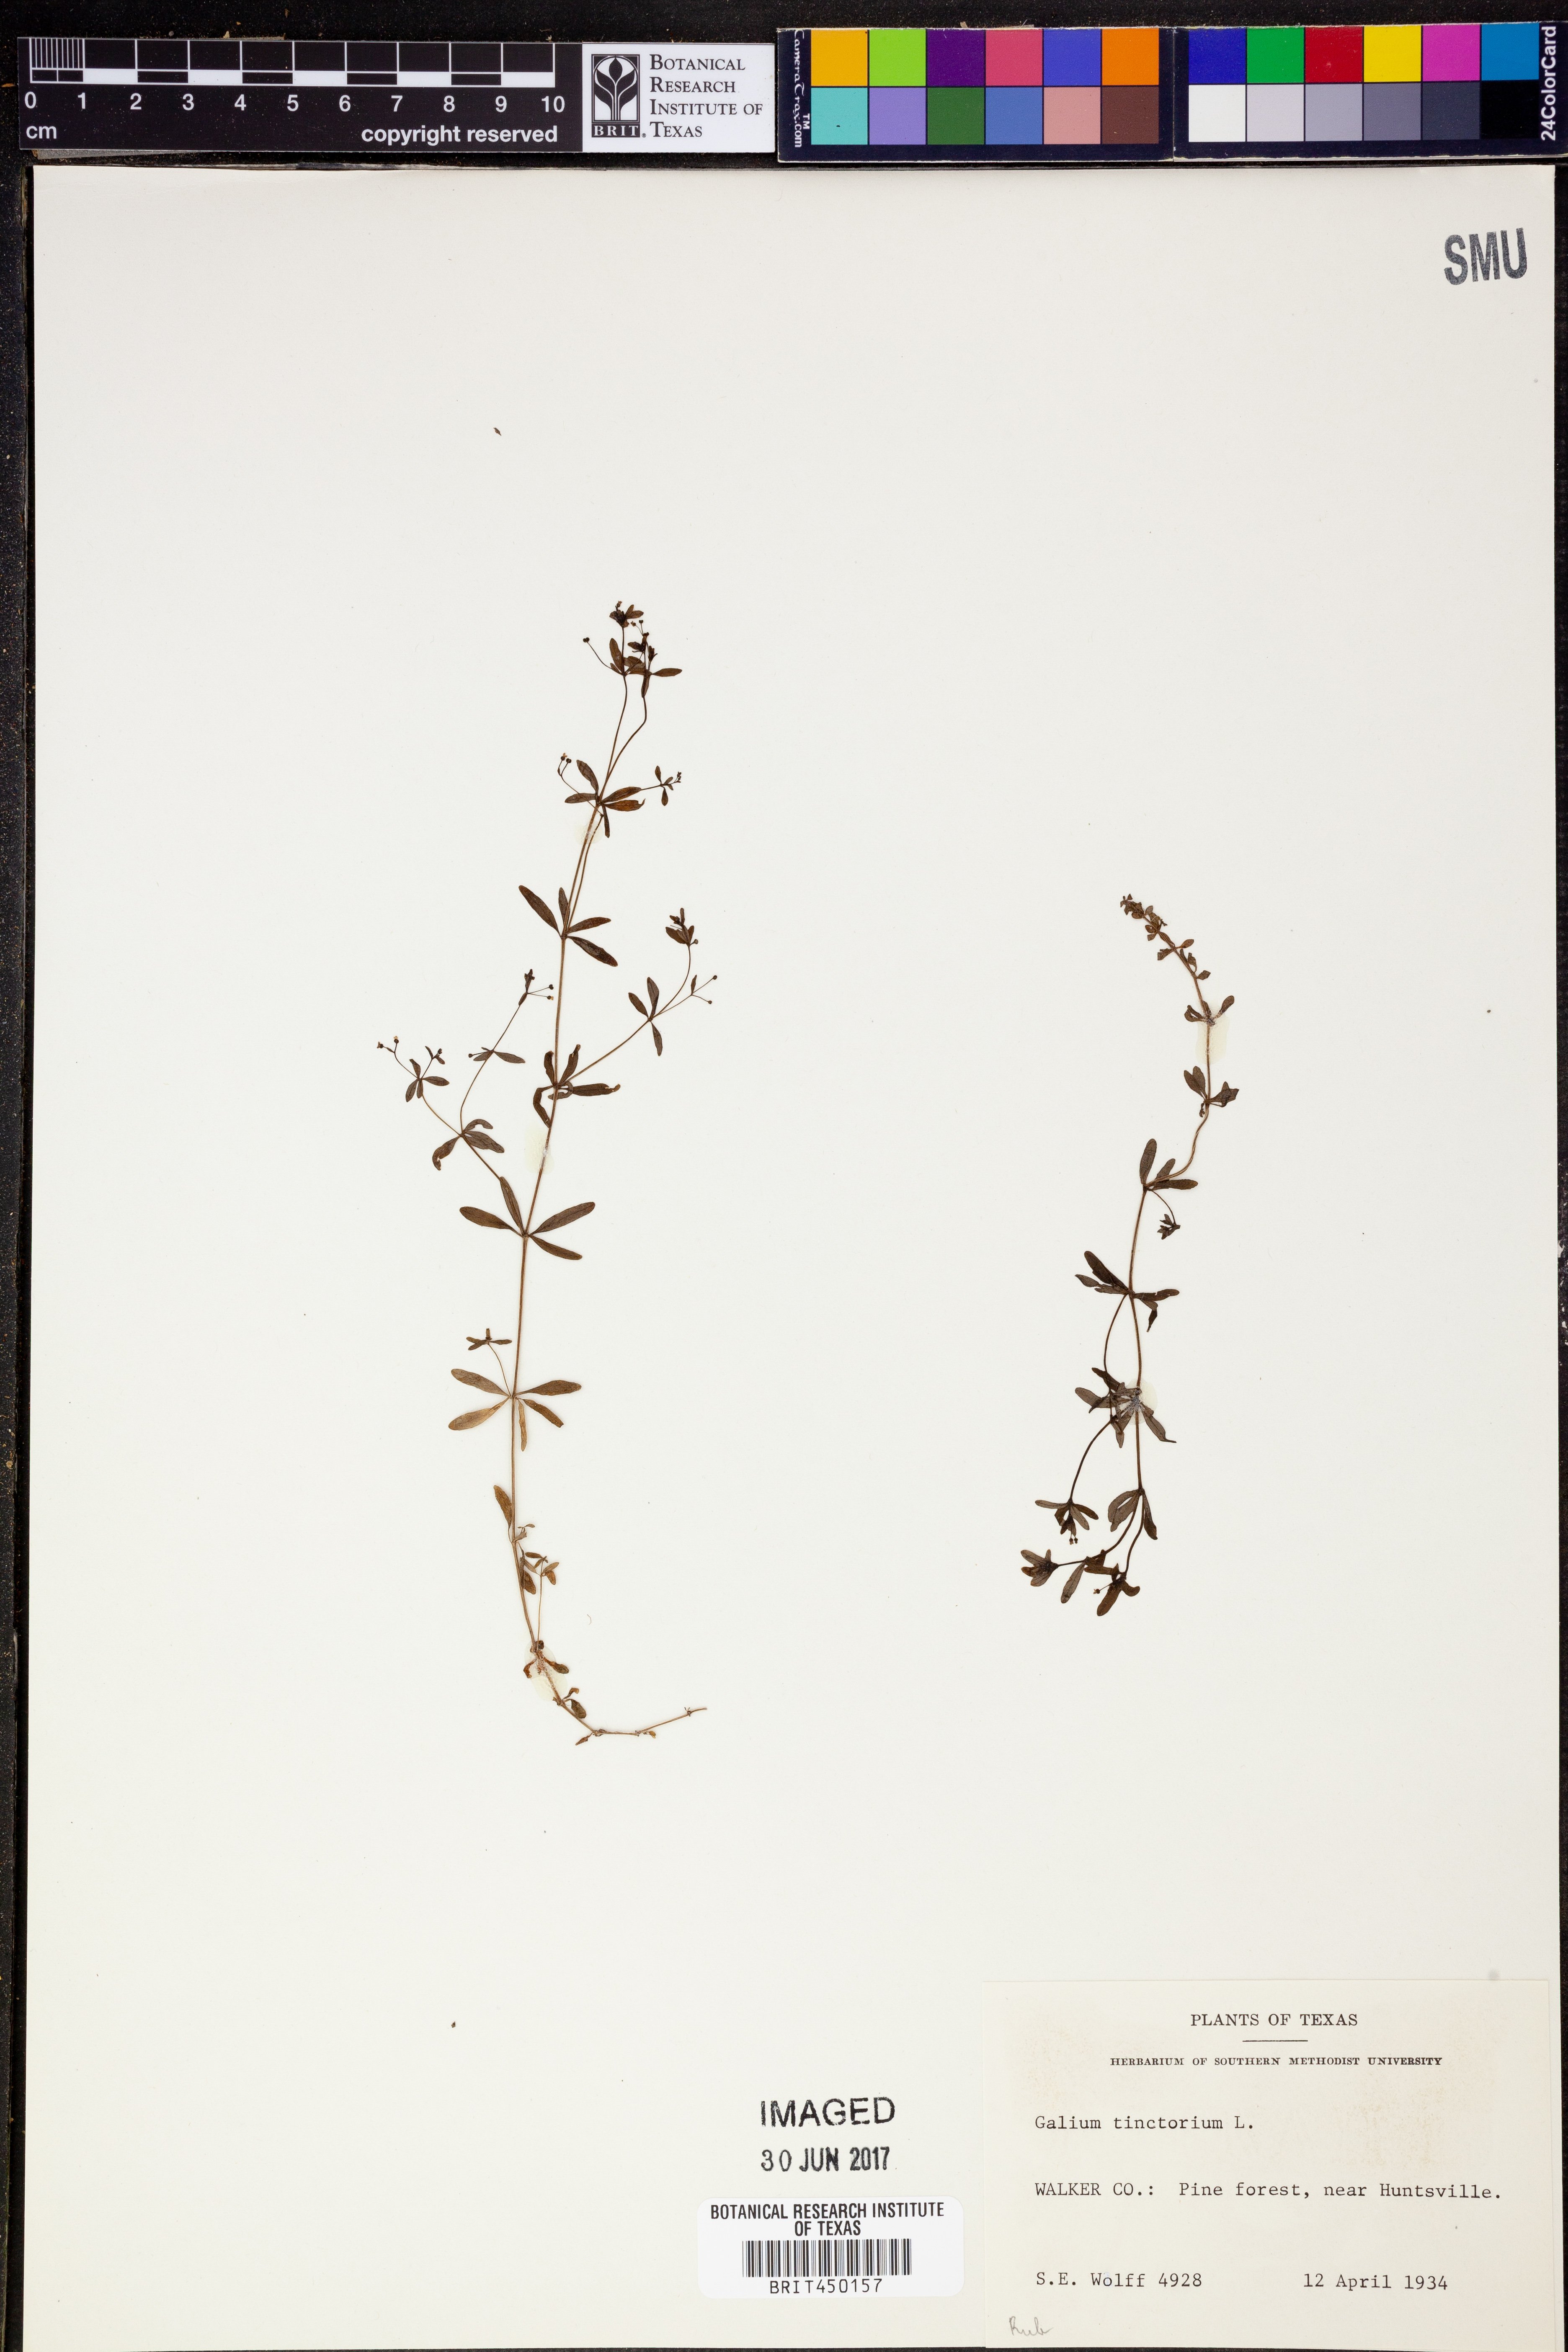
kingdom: Plantae
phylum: Tracheophyta
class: Magnoliopsida
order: Gentianales
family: Rubiaceae
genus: Asperula
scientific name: Asperula tinctoria
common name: Dyer's woodruff
